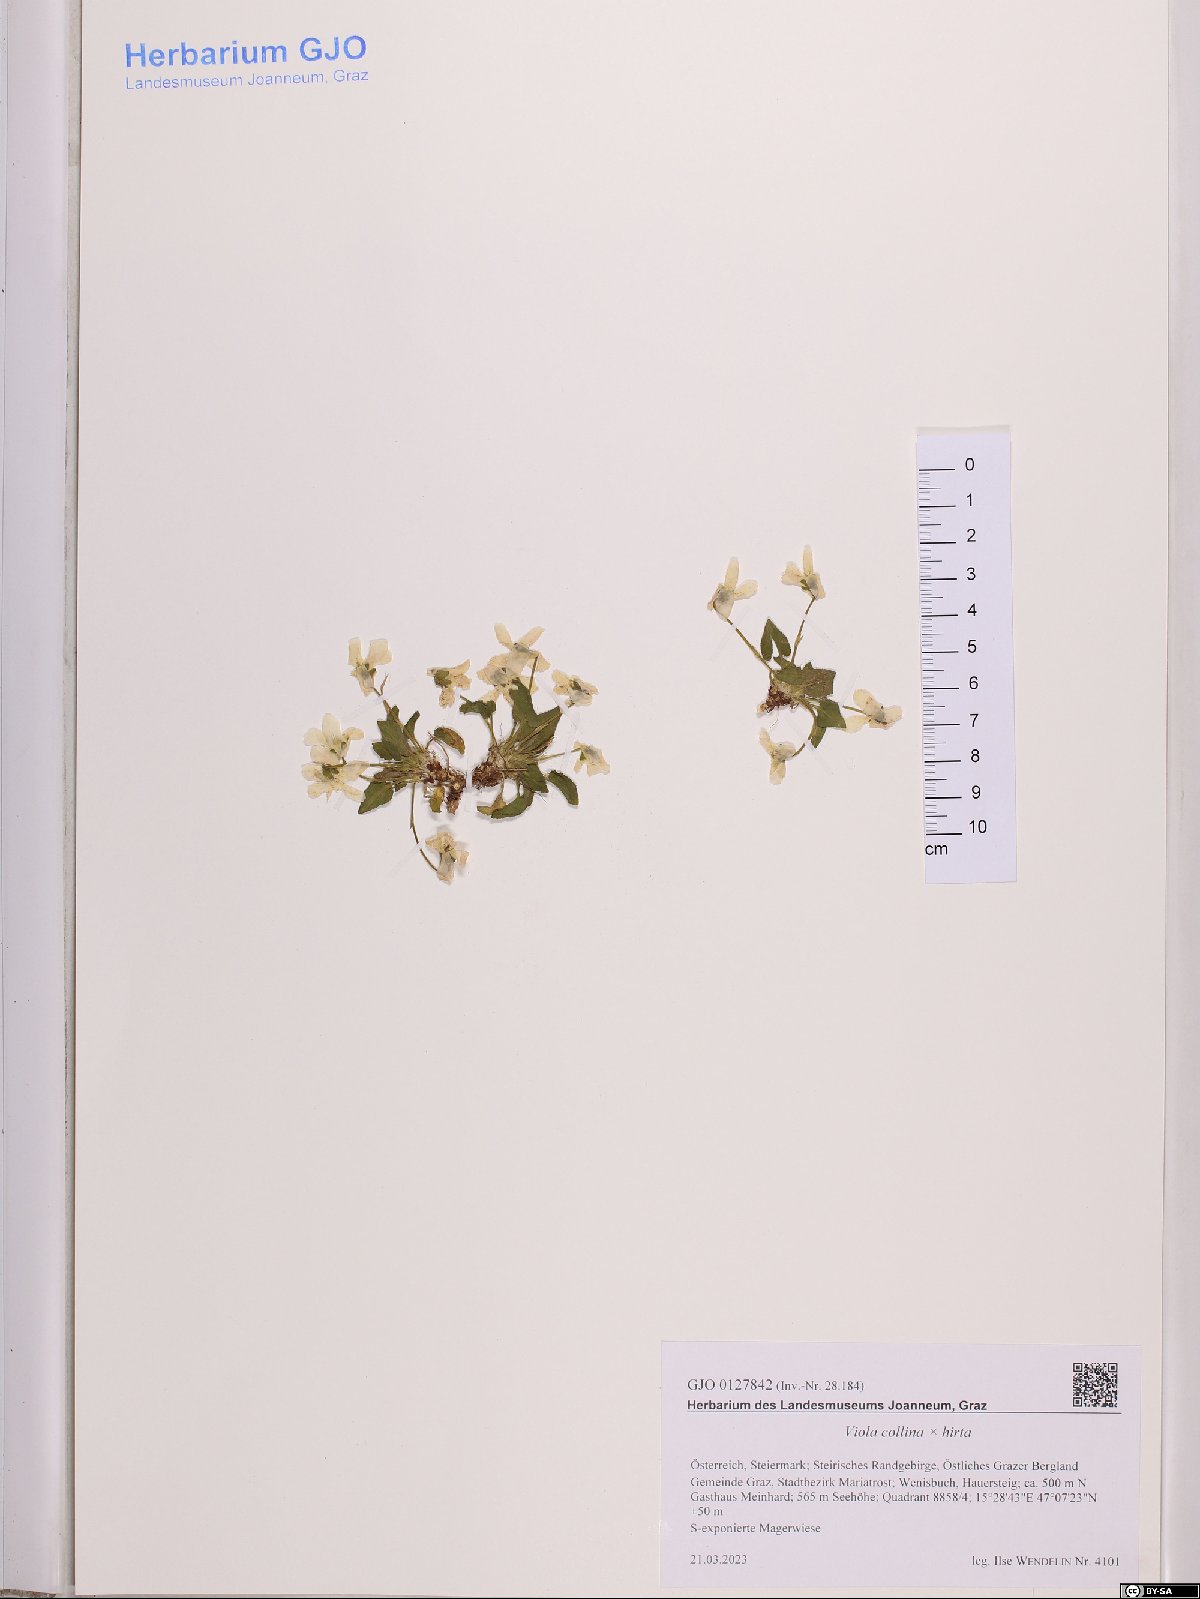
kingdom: Plantae
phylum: Tracheophyta
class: Magnoliopsida
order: Malpighiales
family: Violaceae
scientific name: Violaceae
